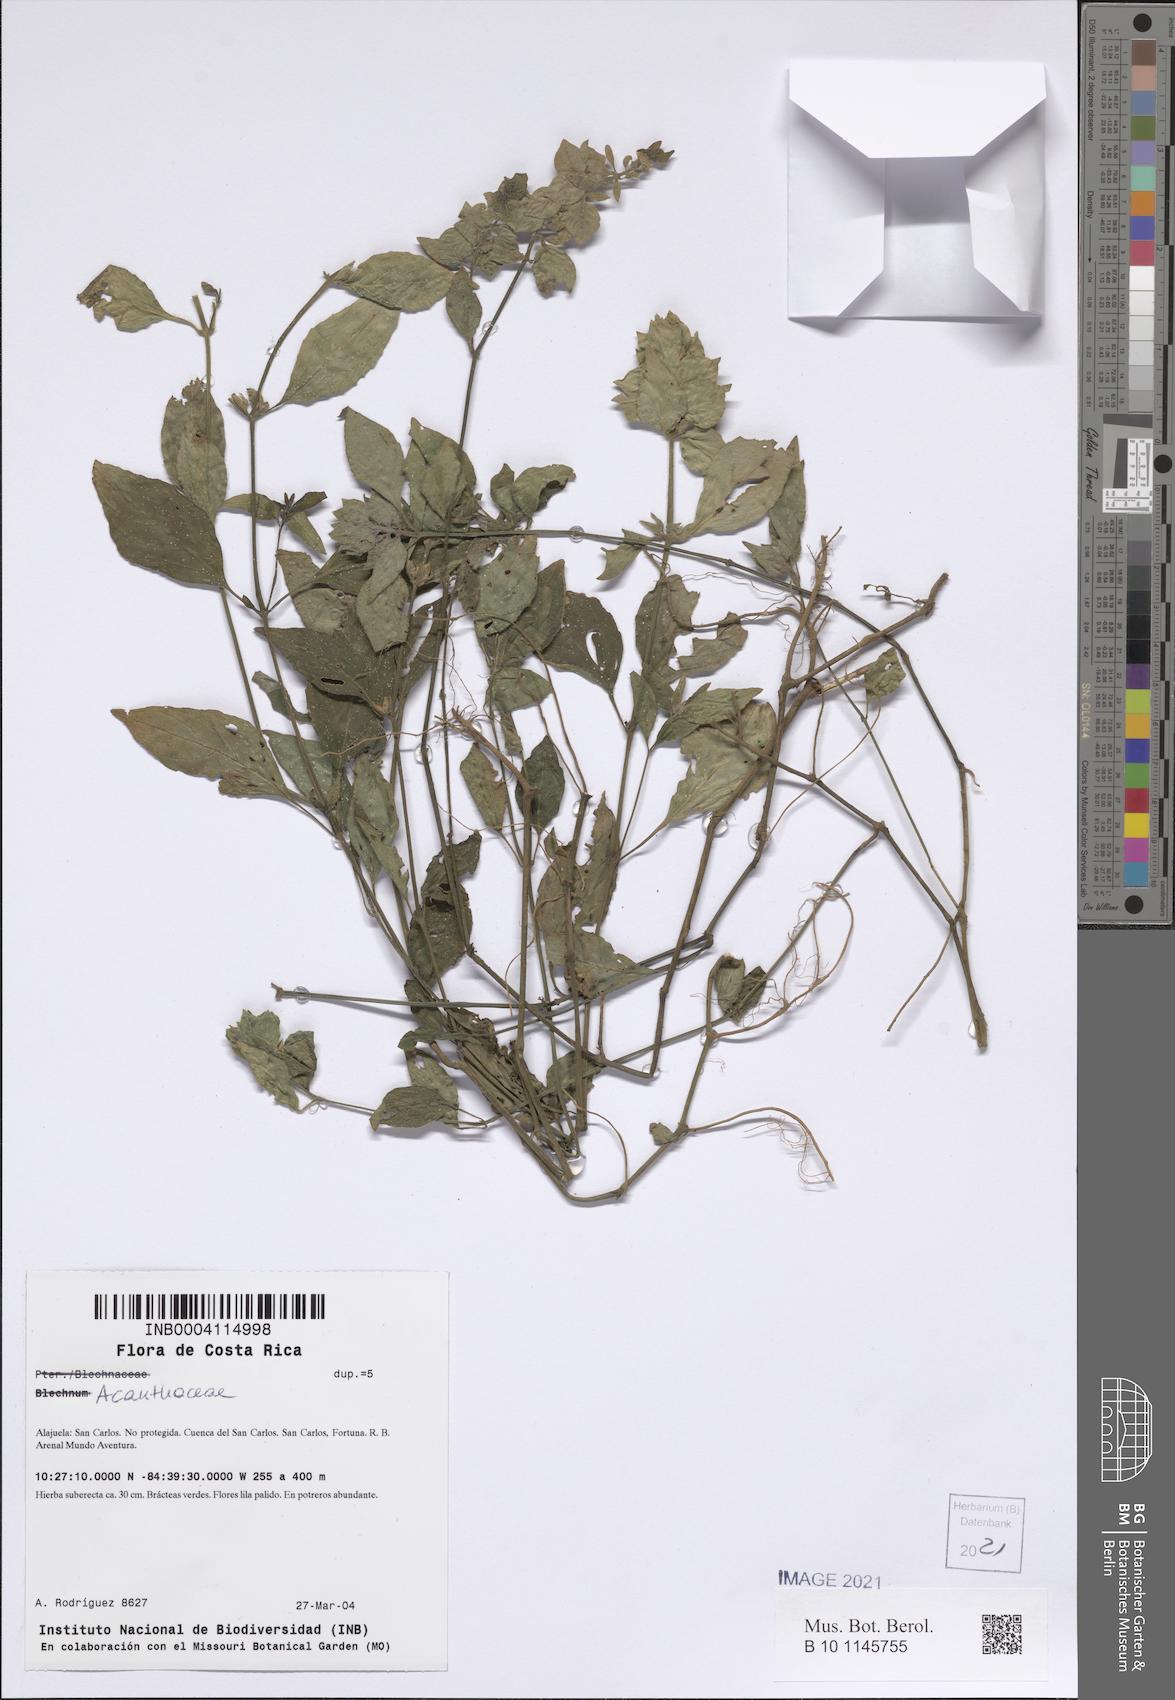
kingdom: Plantae
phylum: Tracheophyta
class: Magnoliopsida
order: Lamiales
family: Acanthaceae
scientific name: Acanthaceae
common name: Acanthaceae
